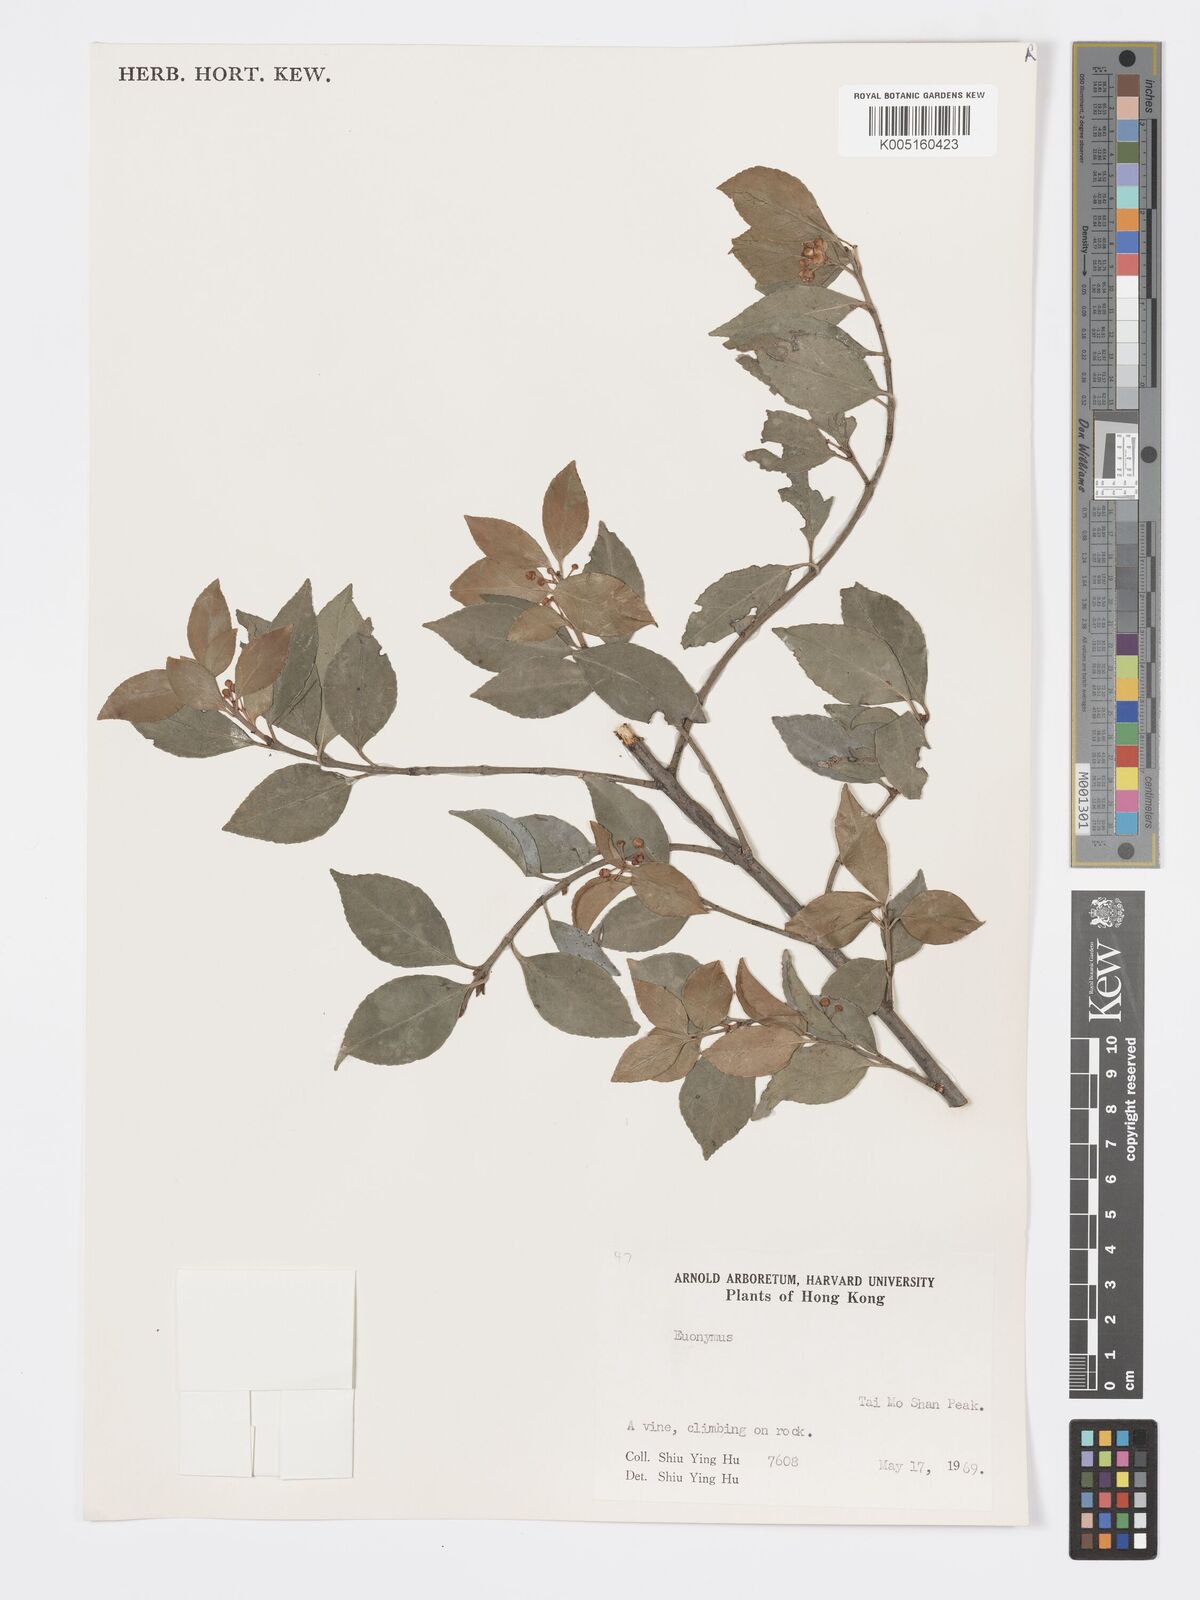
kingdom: Plantae
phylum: Tracheophyta
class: Magnoliopsida
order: Celastrales
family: Celastraceae
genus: Euonymus
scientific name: Euonymus
